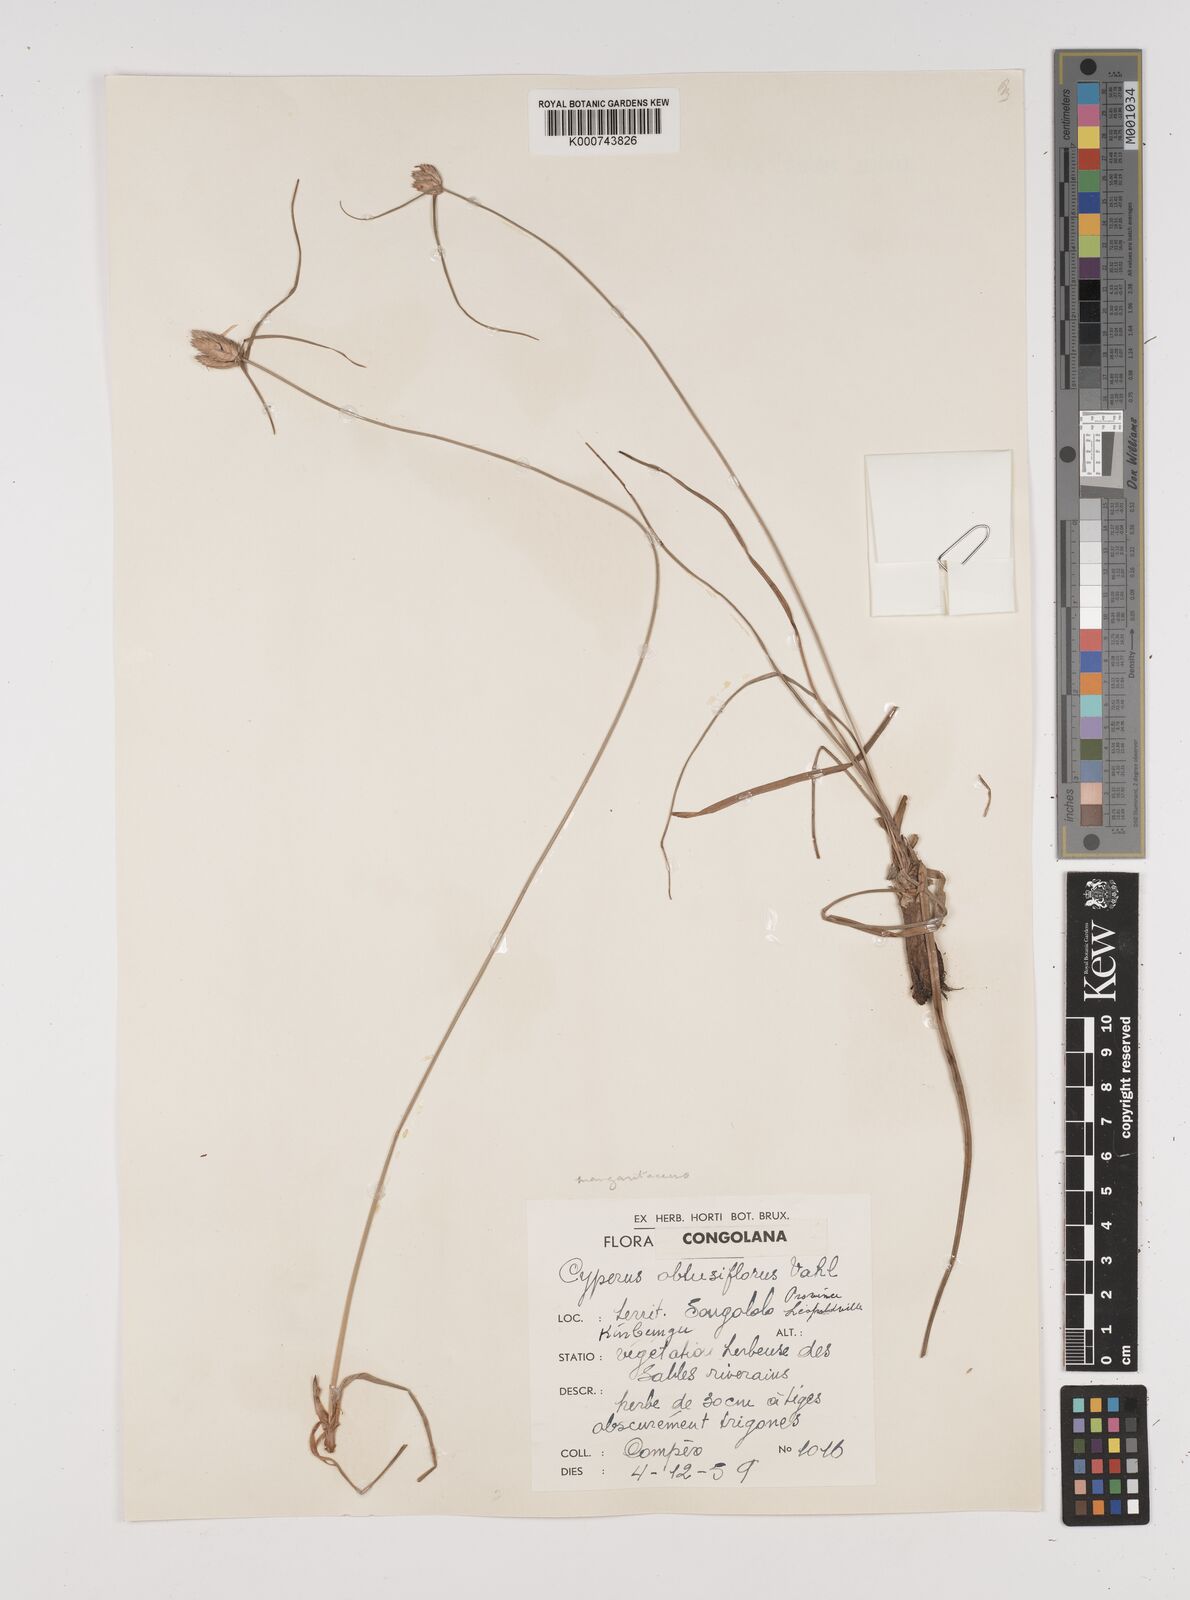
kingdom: Plantae
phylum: Tracheophyta
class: Liliopsida
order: Poales
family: Cyperaceae
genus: Cyperus
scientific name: Cyperus margaritaceus
